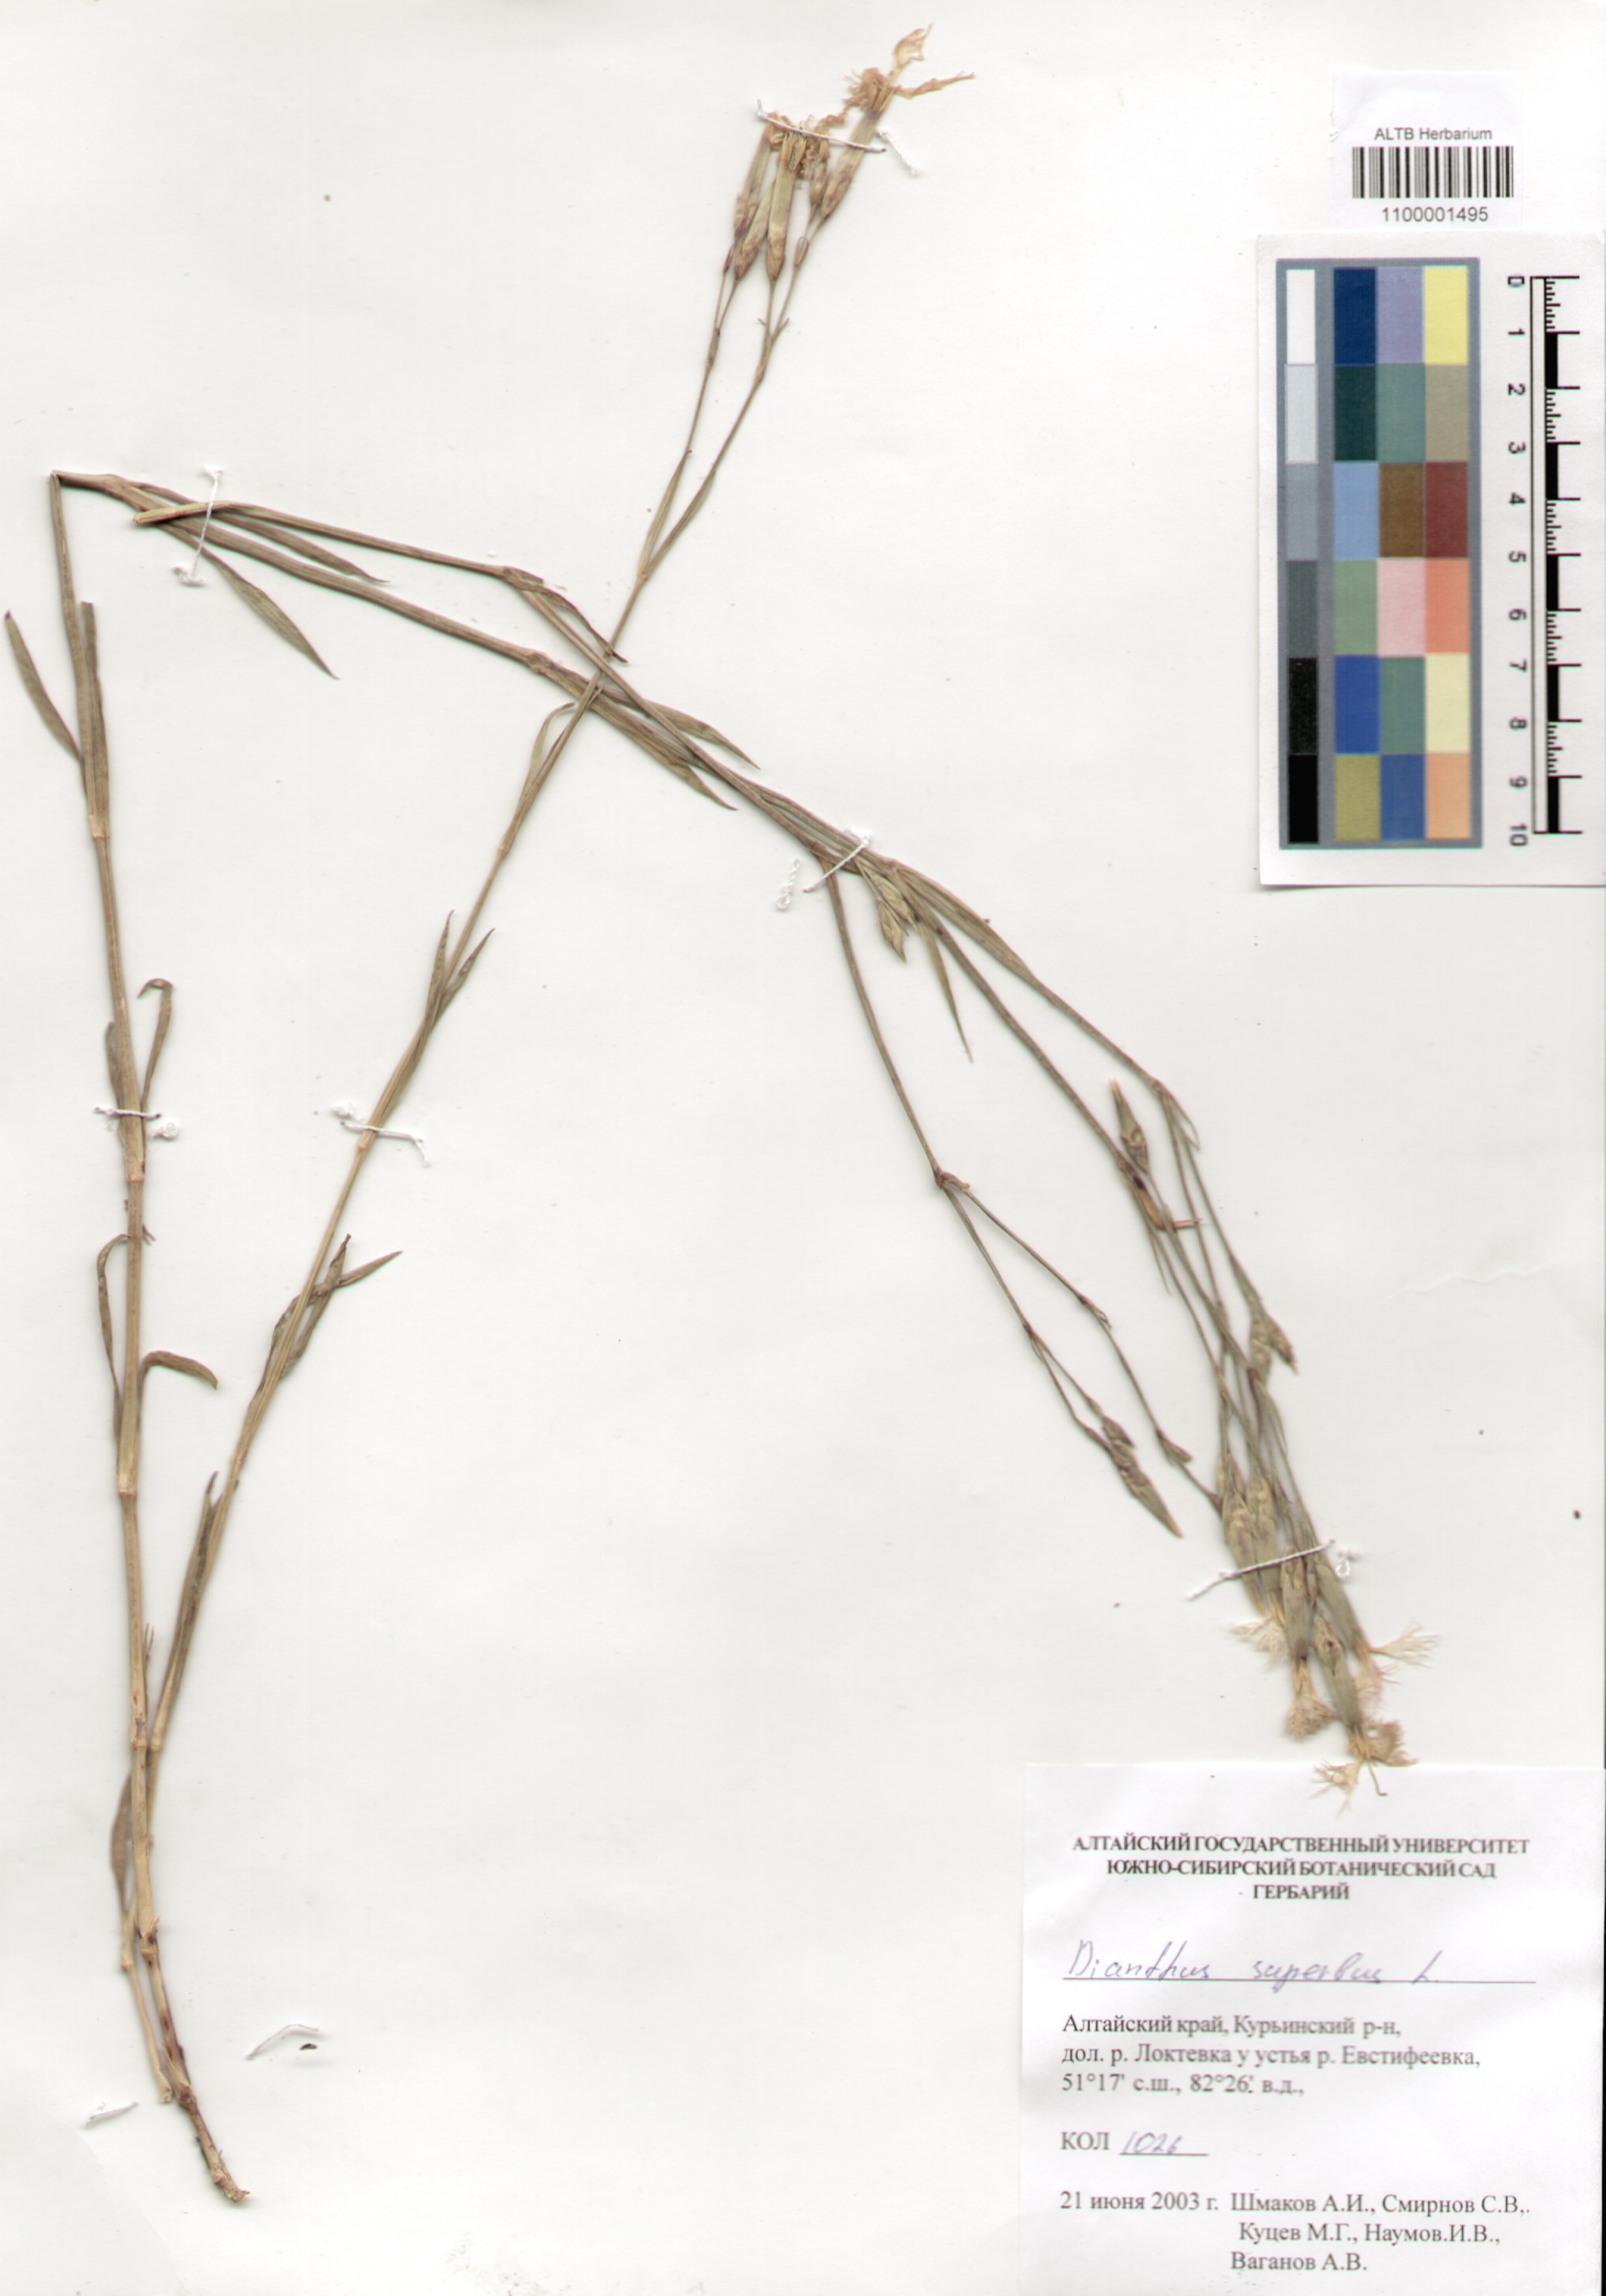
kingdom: Plantae
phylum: Tracheophyta
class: Magnoliopsida
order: Caryophyllales
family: Caryophyllaceae
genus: Dianthus
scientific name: Dianthus superbus
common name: Fringed pink
